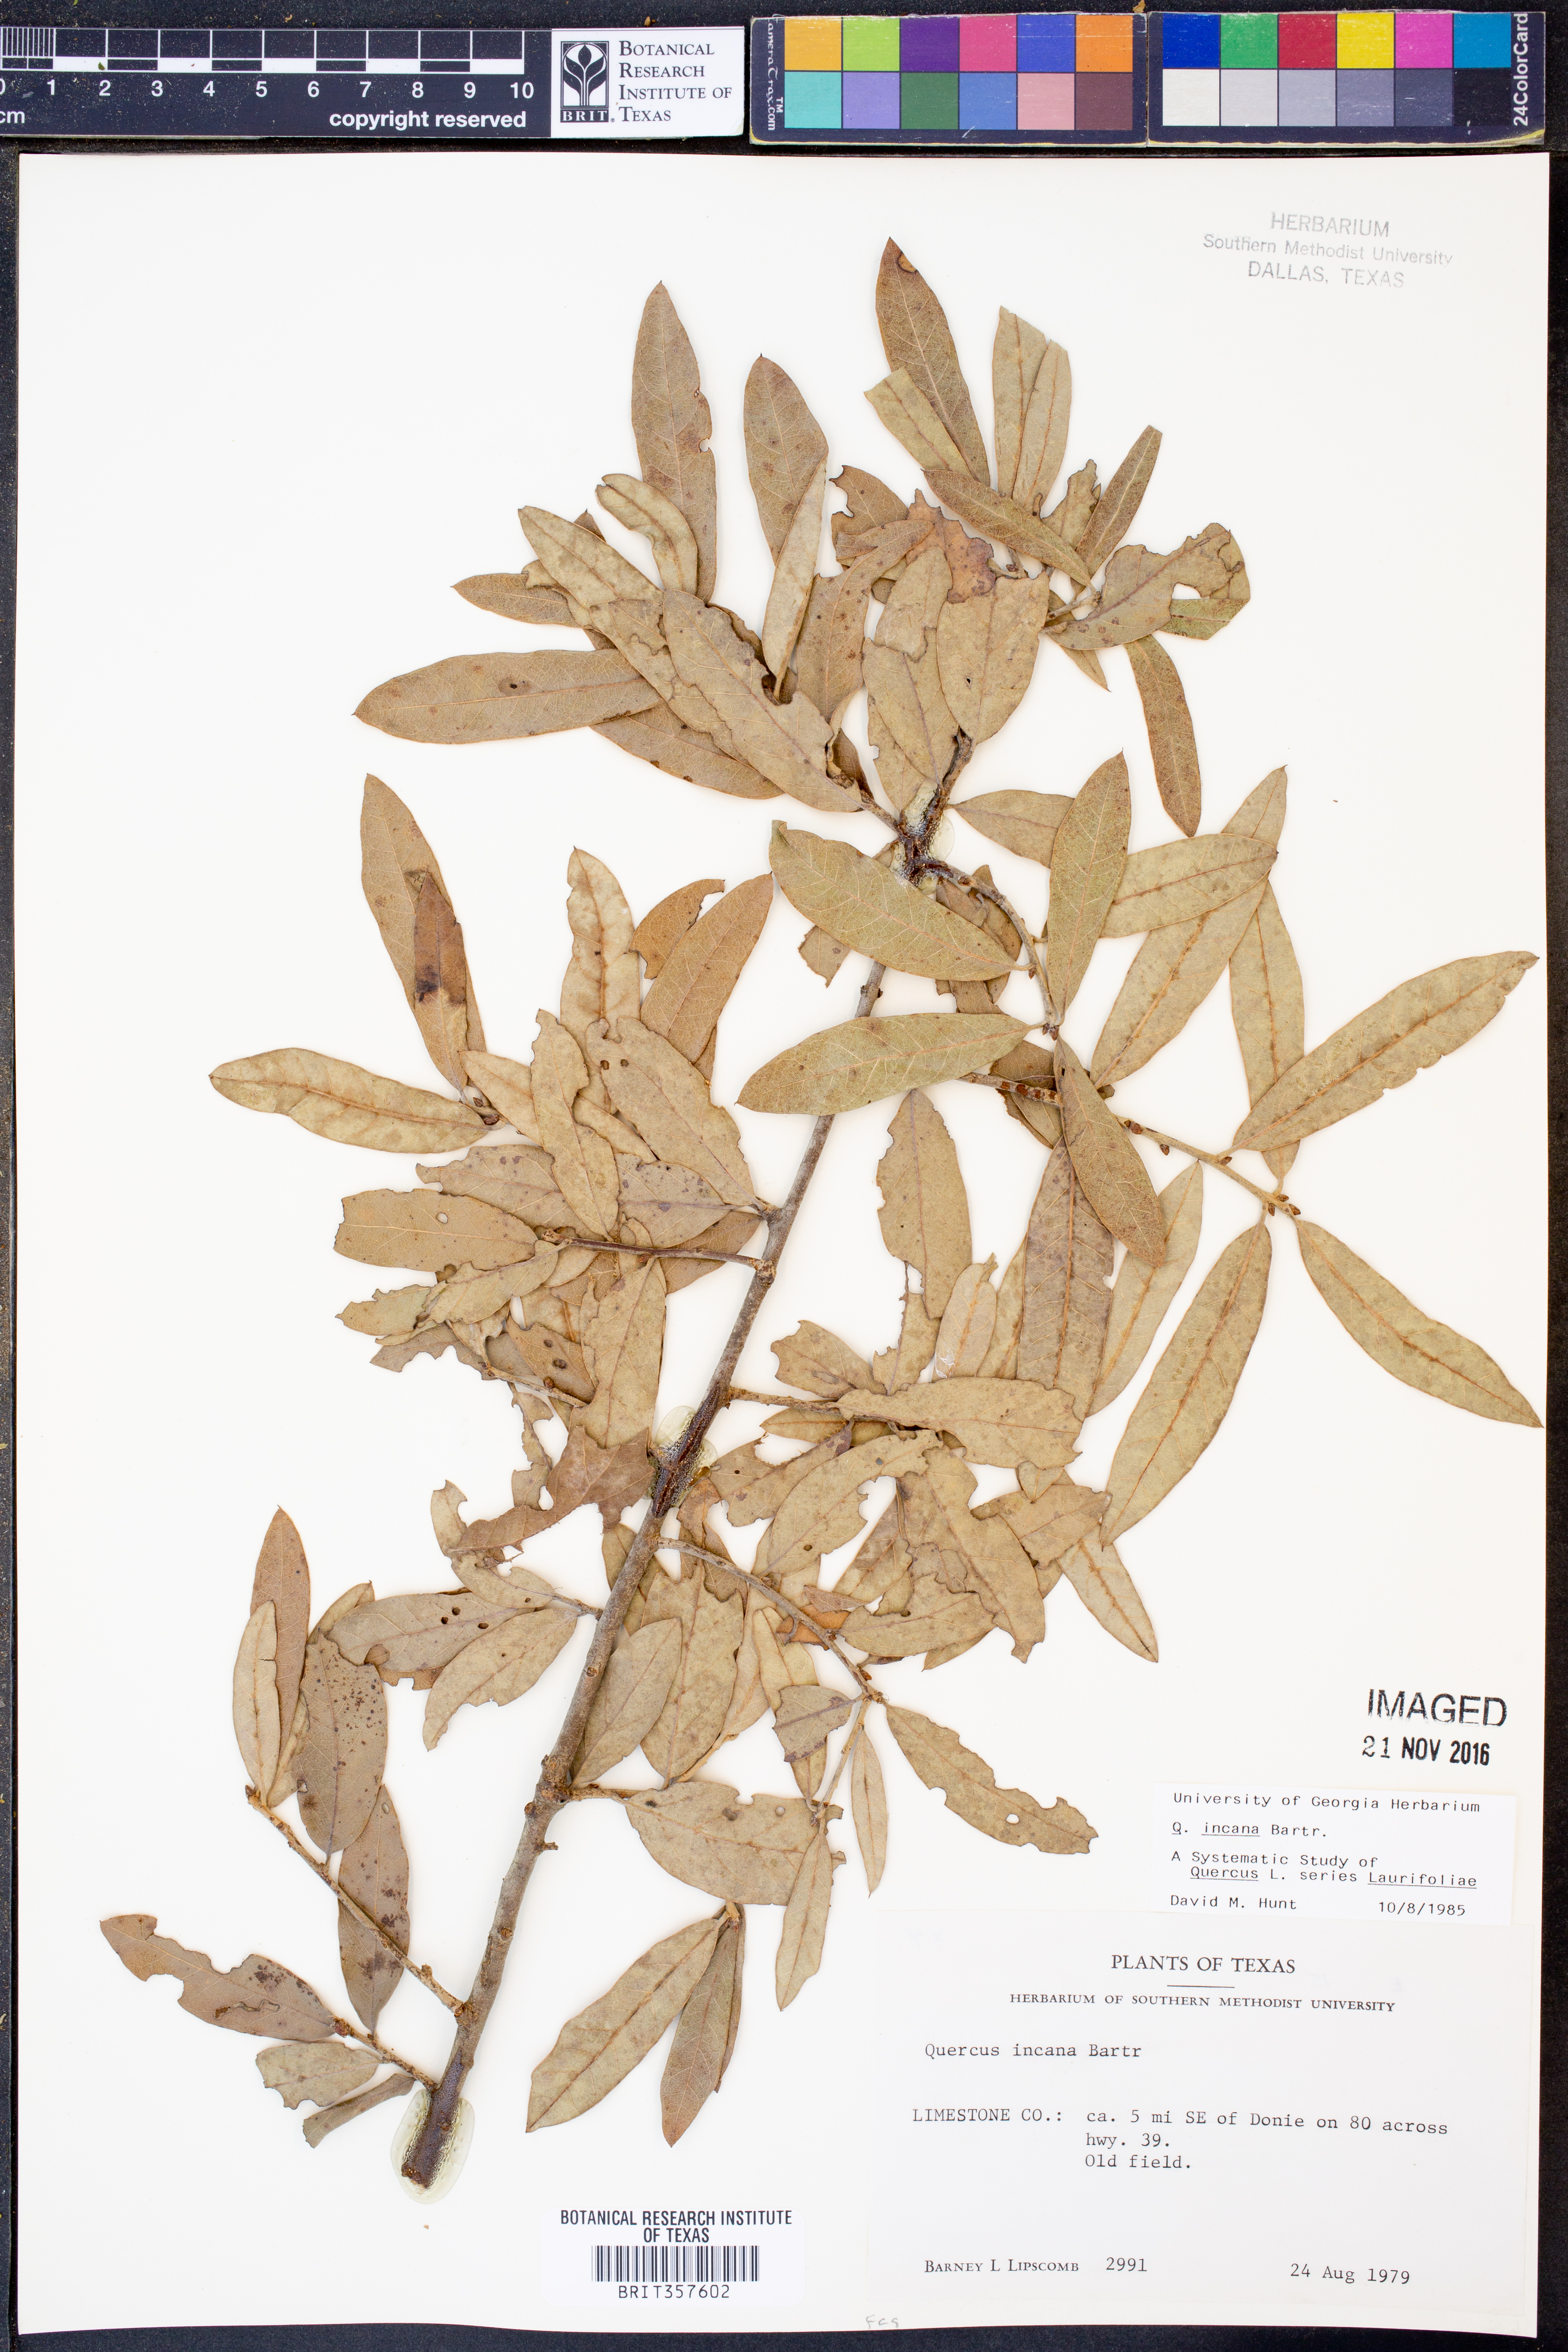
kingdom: Plantae
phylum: Tracheophyta
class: Magnoliopsida
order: Fagales
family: Fagaceae
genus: Quercus
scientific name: Quercus incana
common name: Bluejack oak
